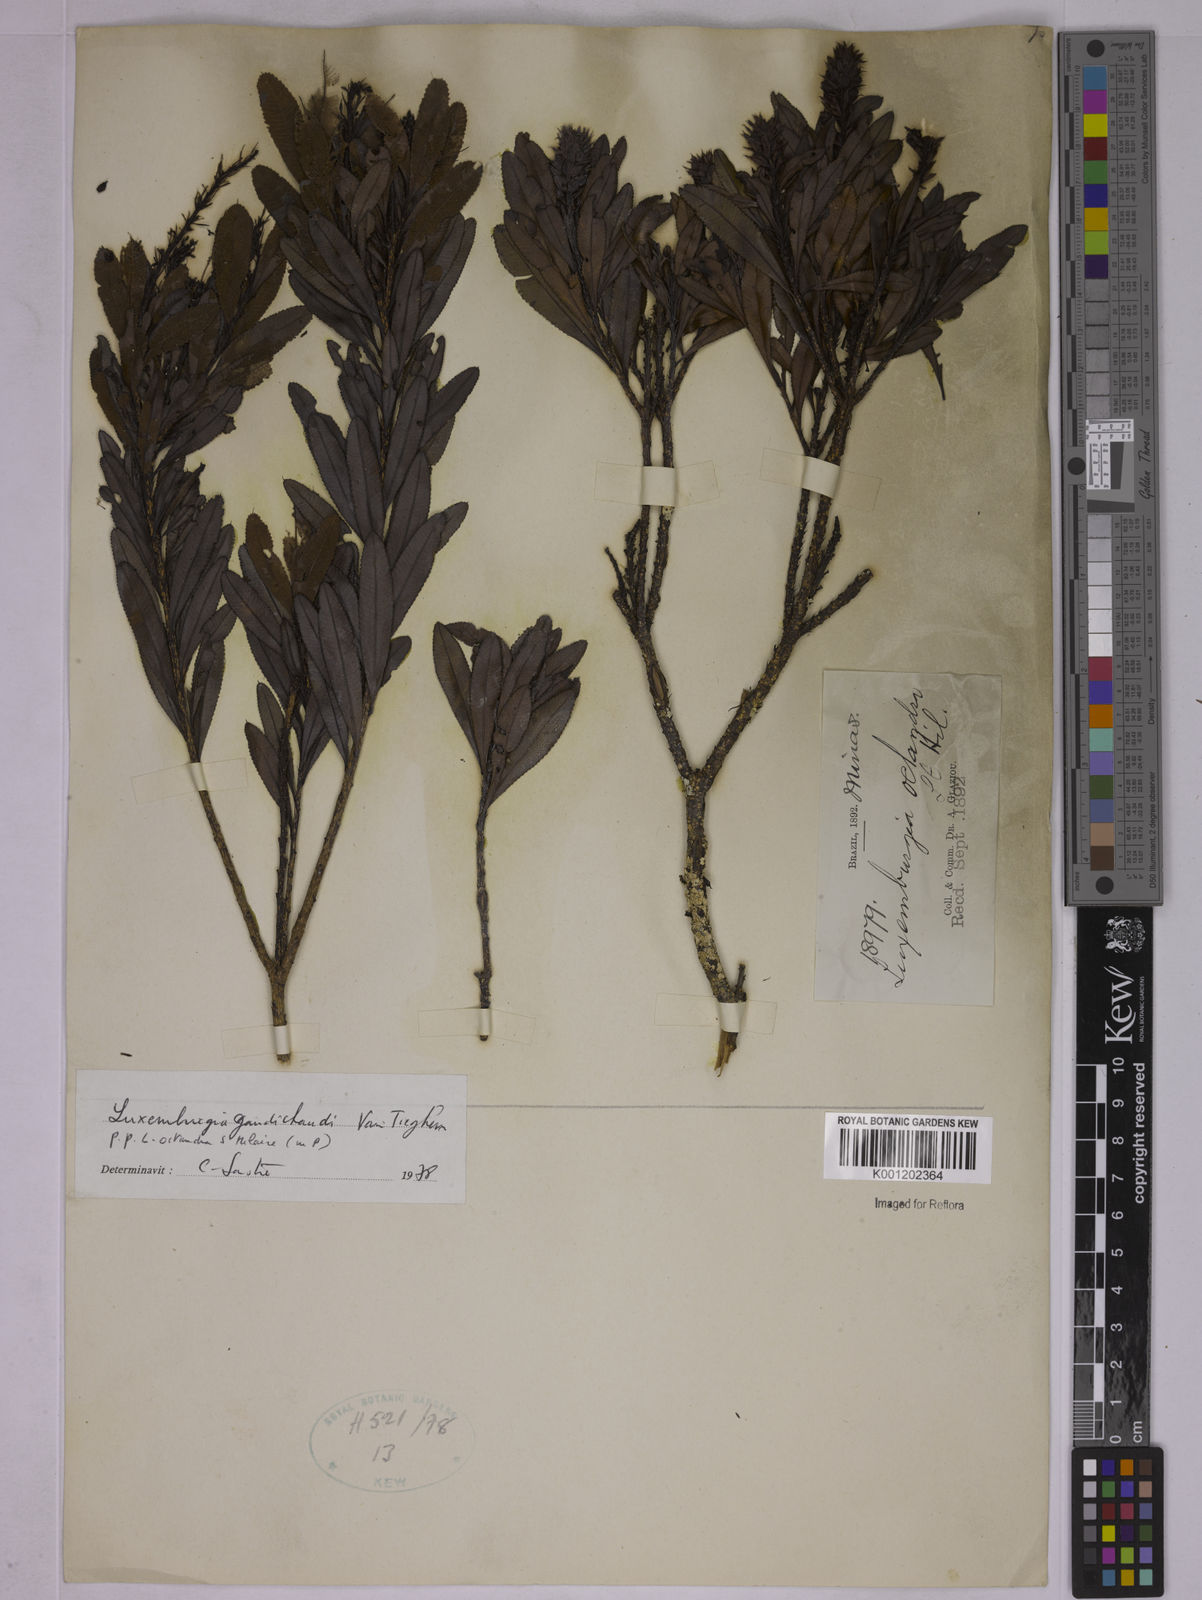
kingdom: Plantae
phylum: Tracheophyta
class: Magnoliopsida
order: Malpighiales
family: Ochnaceae
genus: Luxemburgia
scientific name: Luxemburgia gaudichaudii
